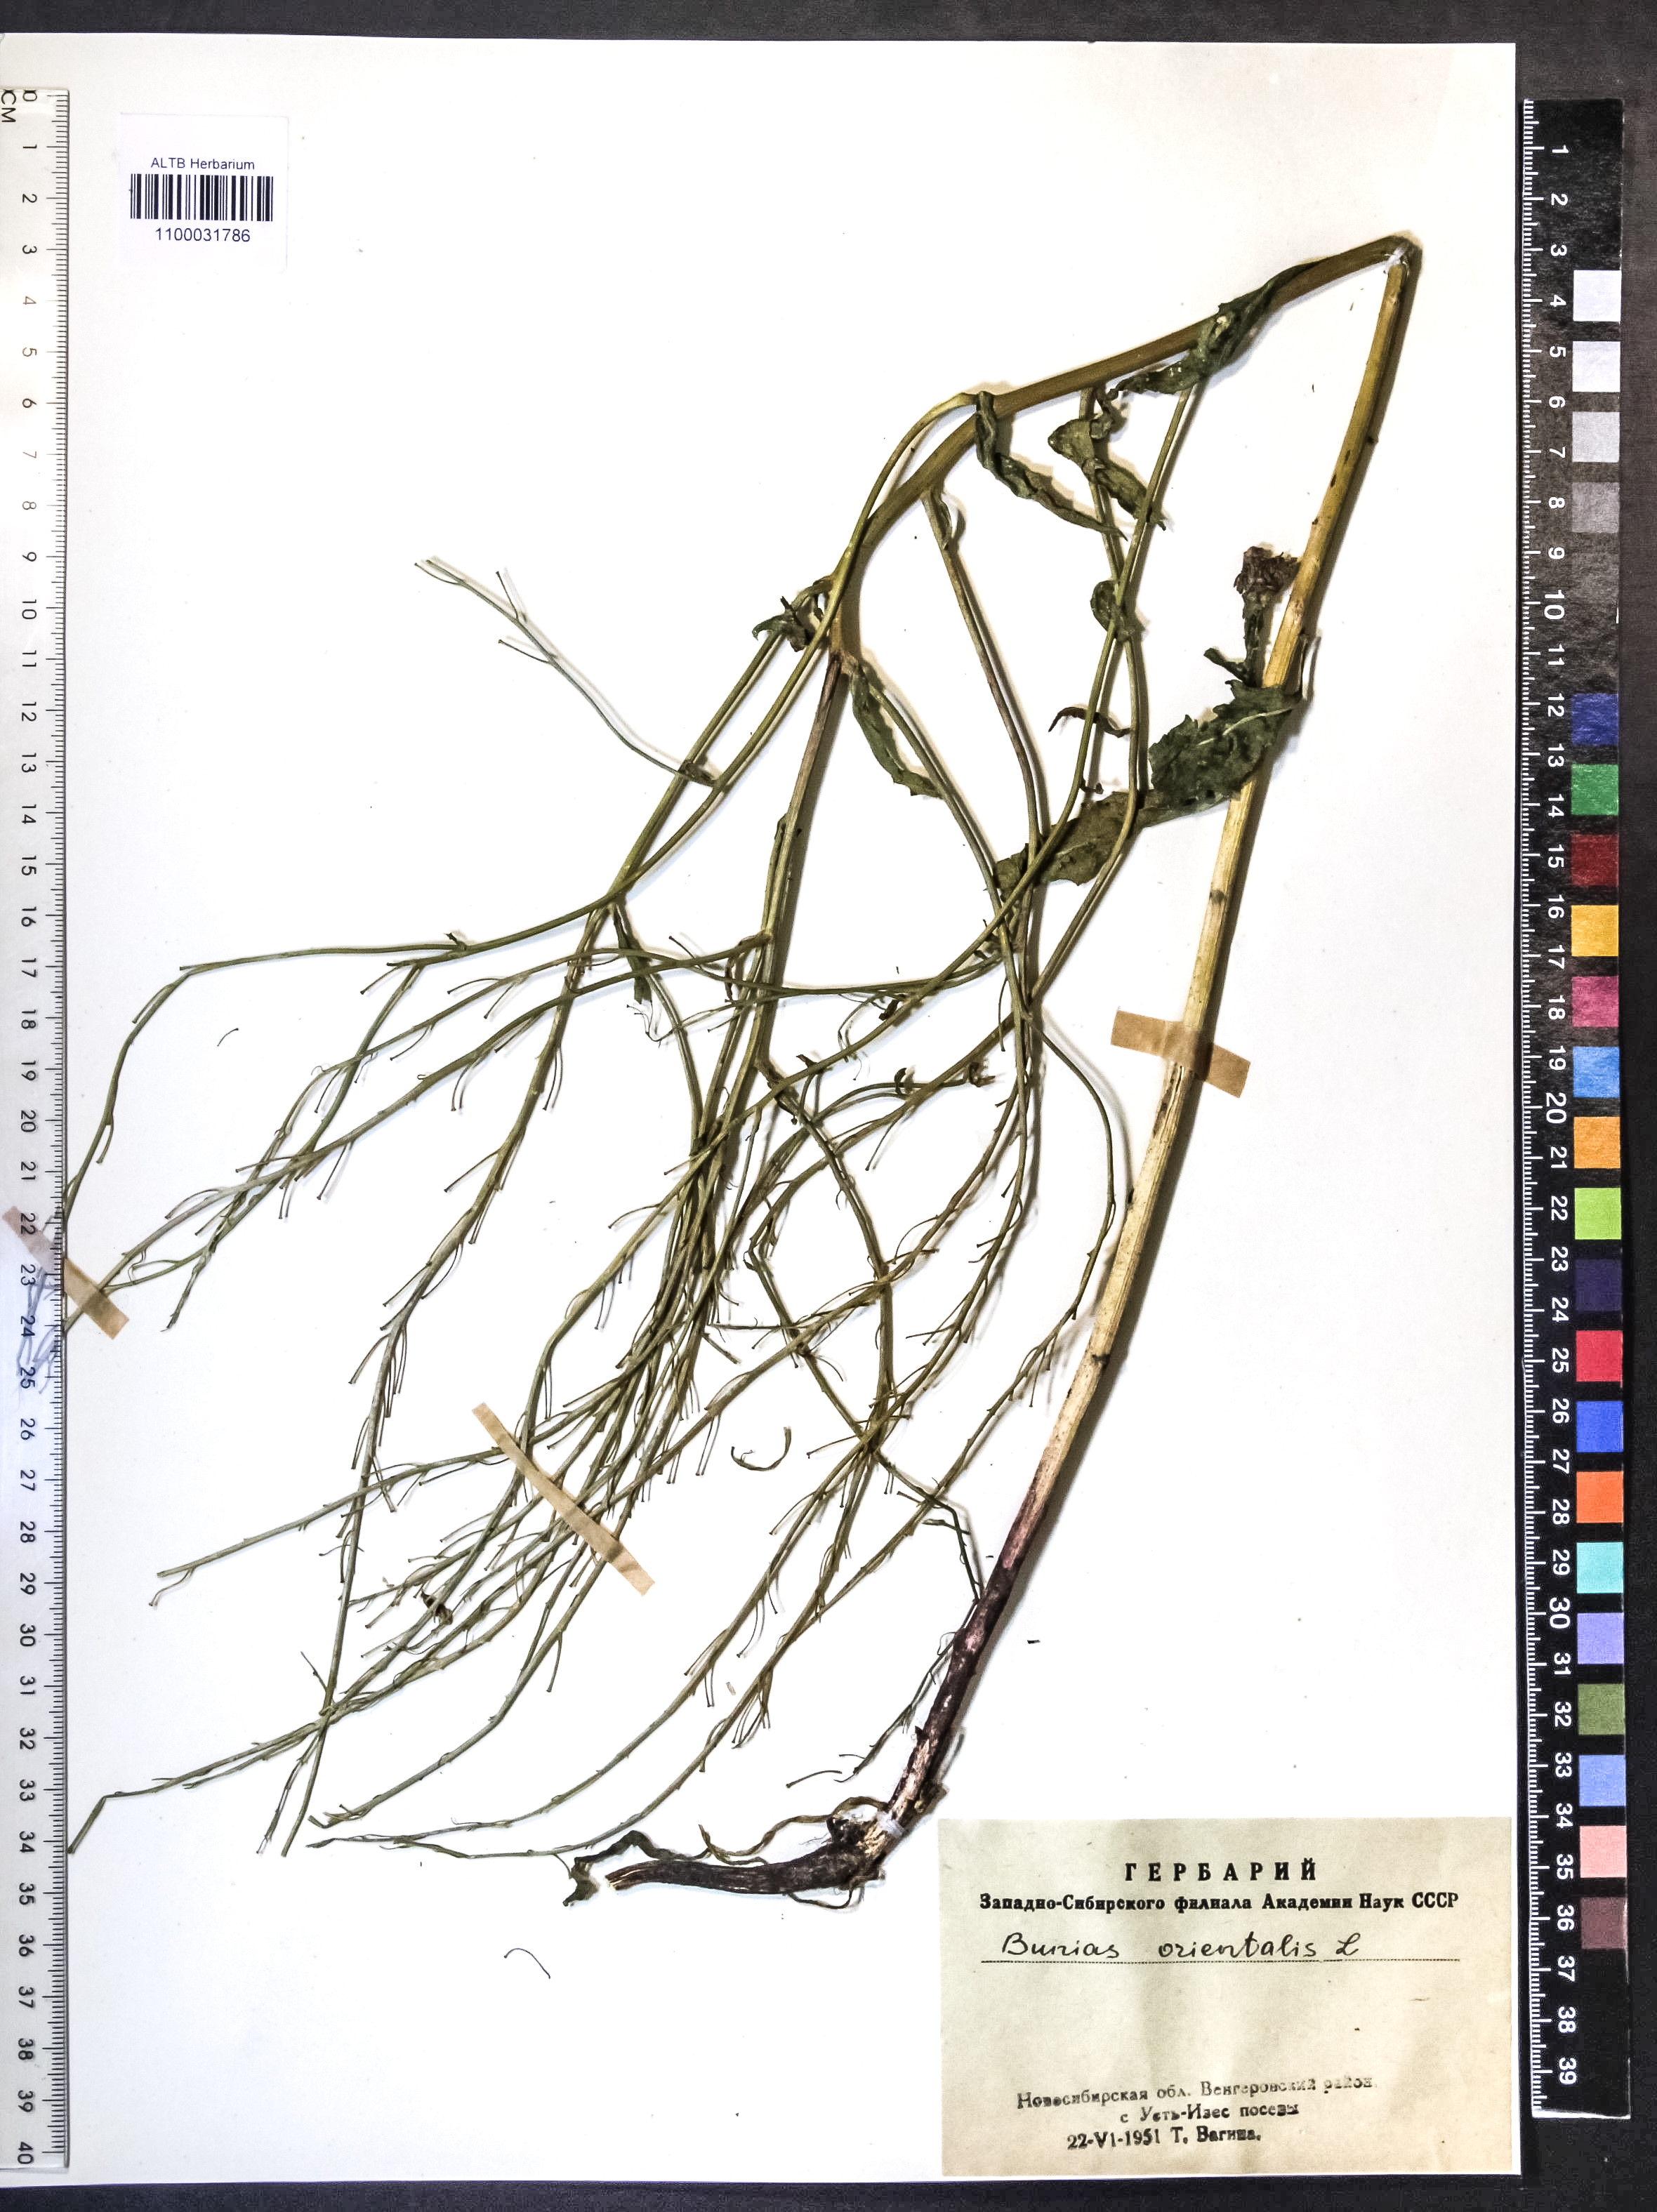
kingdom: Plantae
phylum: Tracheophyta
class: Magnoliopsida
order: Brassicales
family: Brassicaceae
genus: Bunias
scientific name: Bunias orientalis
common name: Warty-cabbage
